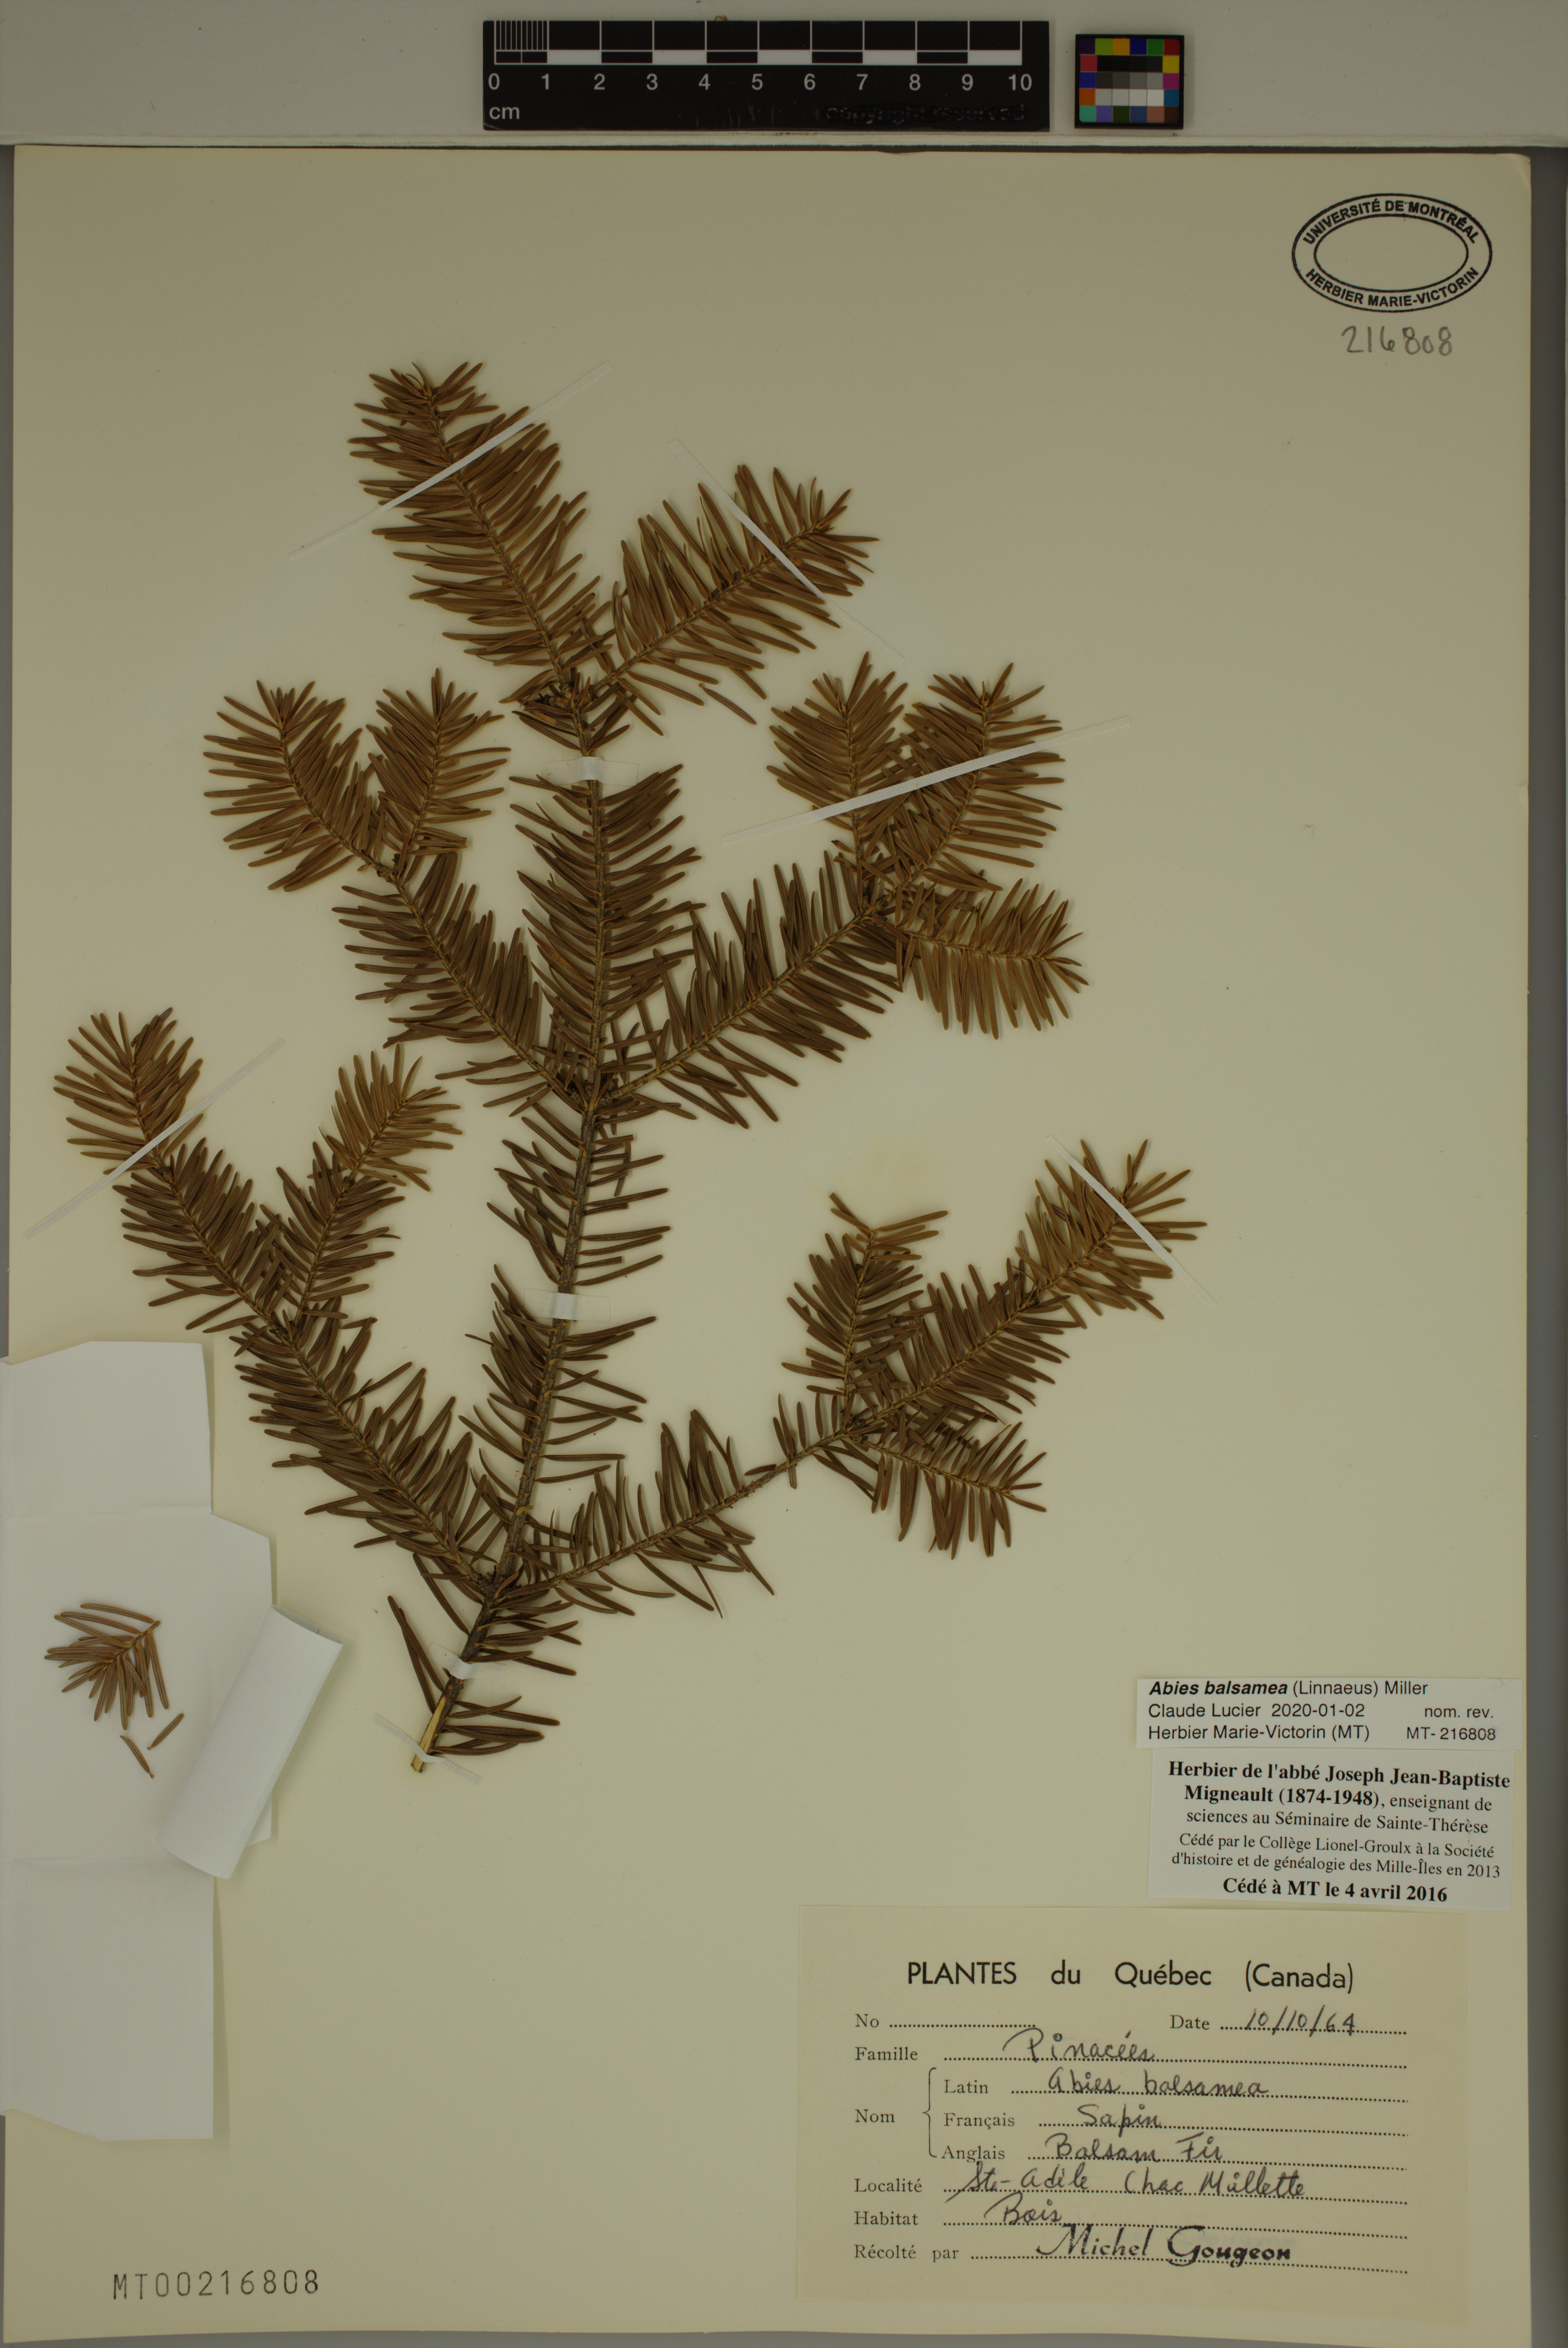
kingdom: Plantae
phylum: Tracheophyta
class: Pinopsida
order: Pinales
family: Pinaceae
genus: Abies
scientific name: Abies balsamea
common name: Balsam fir
